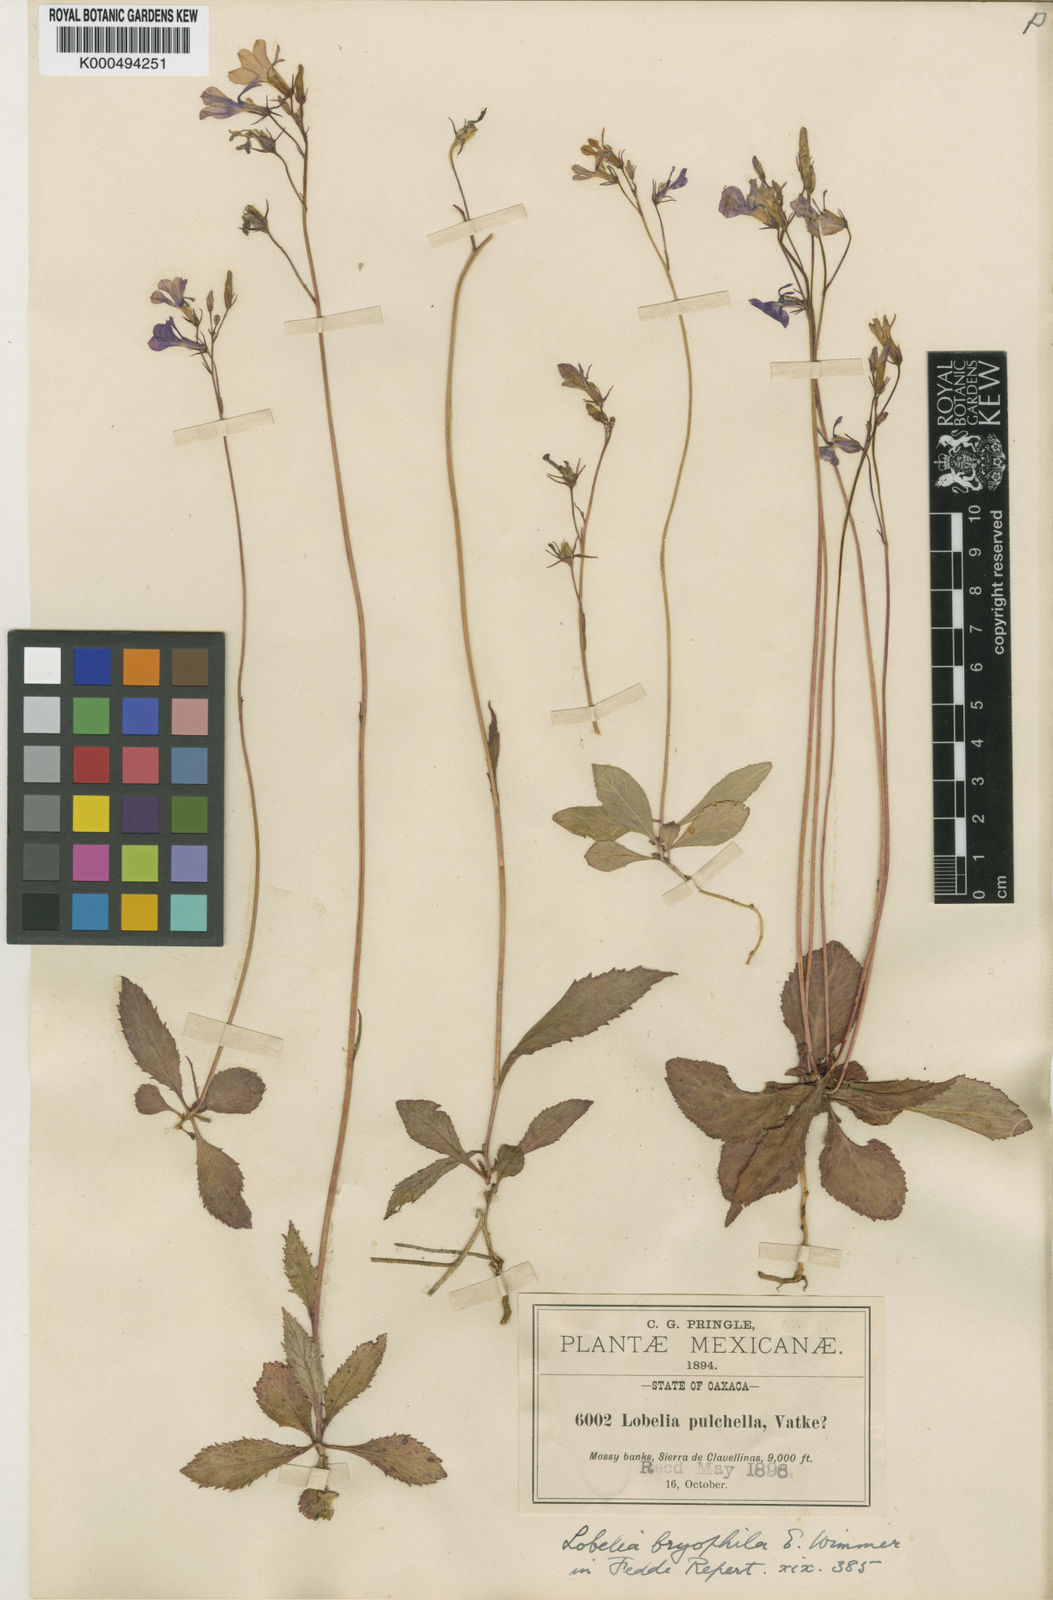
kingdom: Plantae
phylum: Tracheophyta
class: Magnoliopsida
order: Asterales
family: Campanulaceae
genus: Lobelia
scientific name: Lobelia bryophila
